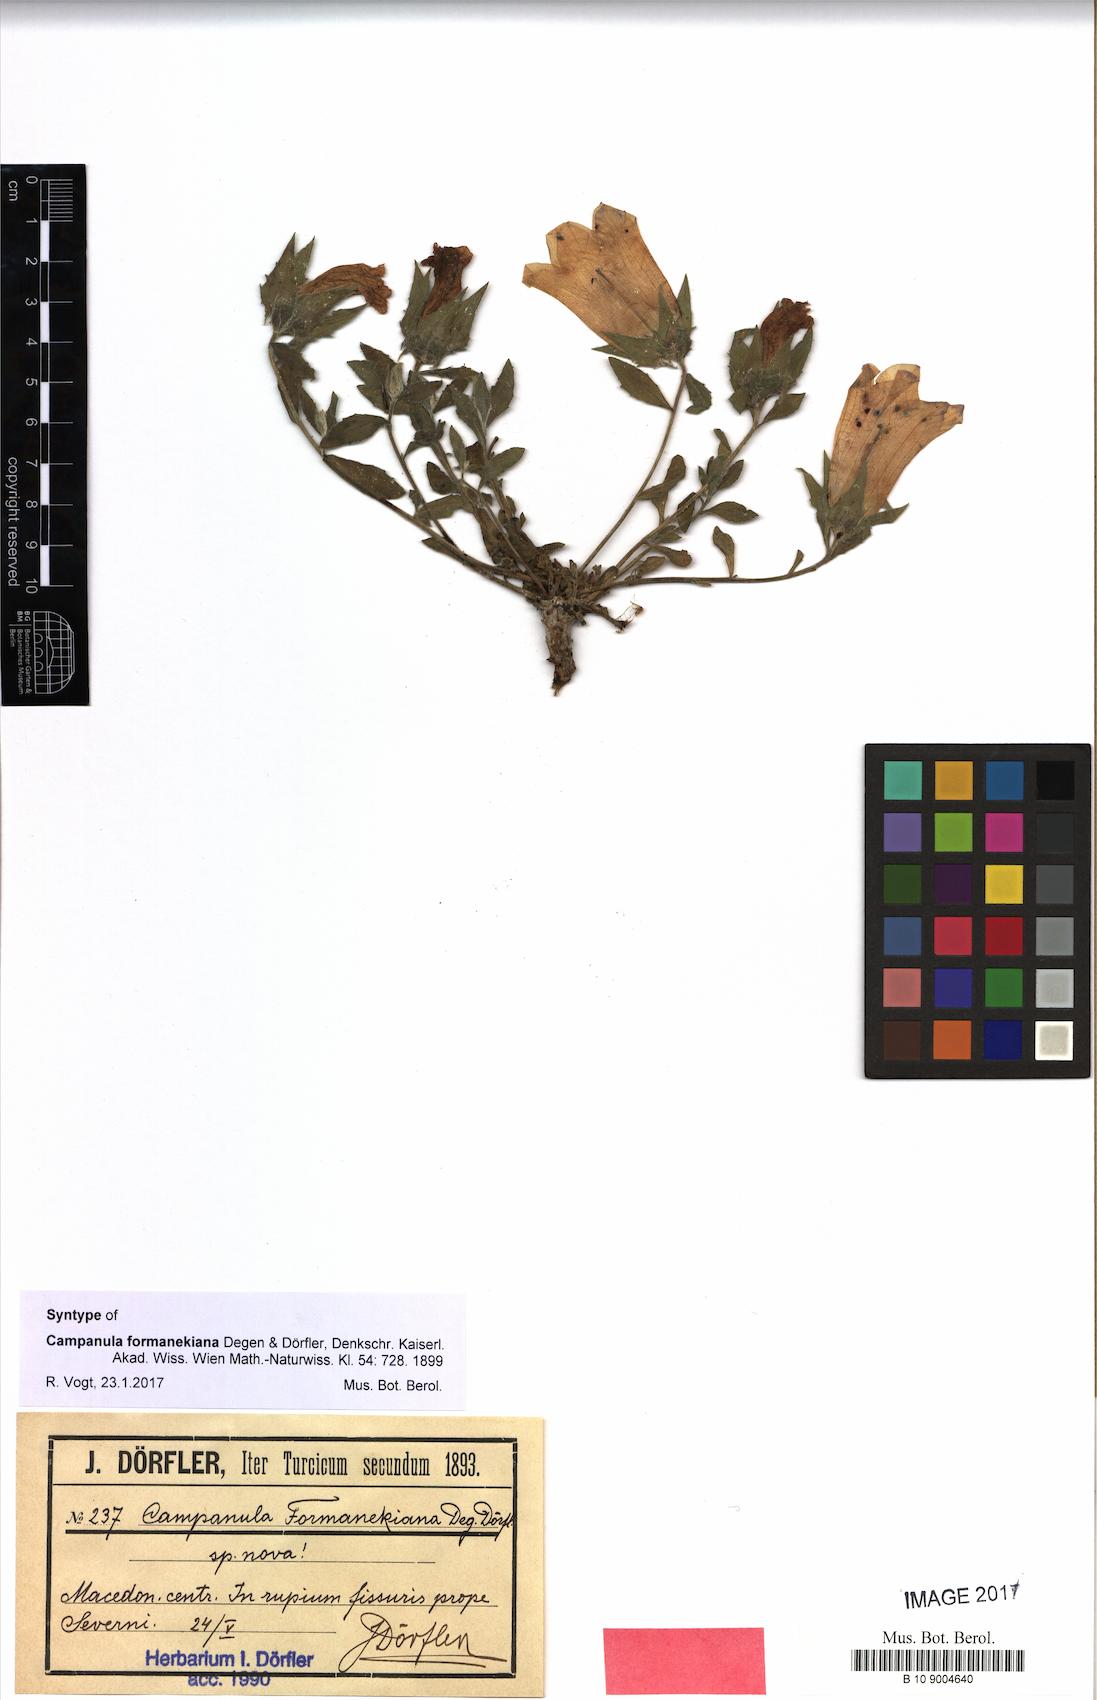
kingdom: Plantae
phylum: Tracheophyta
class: Magnoliopsida
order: Asterales
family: Campanulaceae
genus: Campanula
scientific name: Campanula formanekiana
